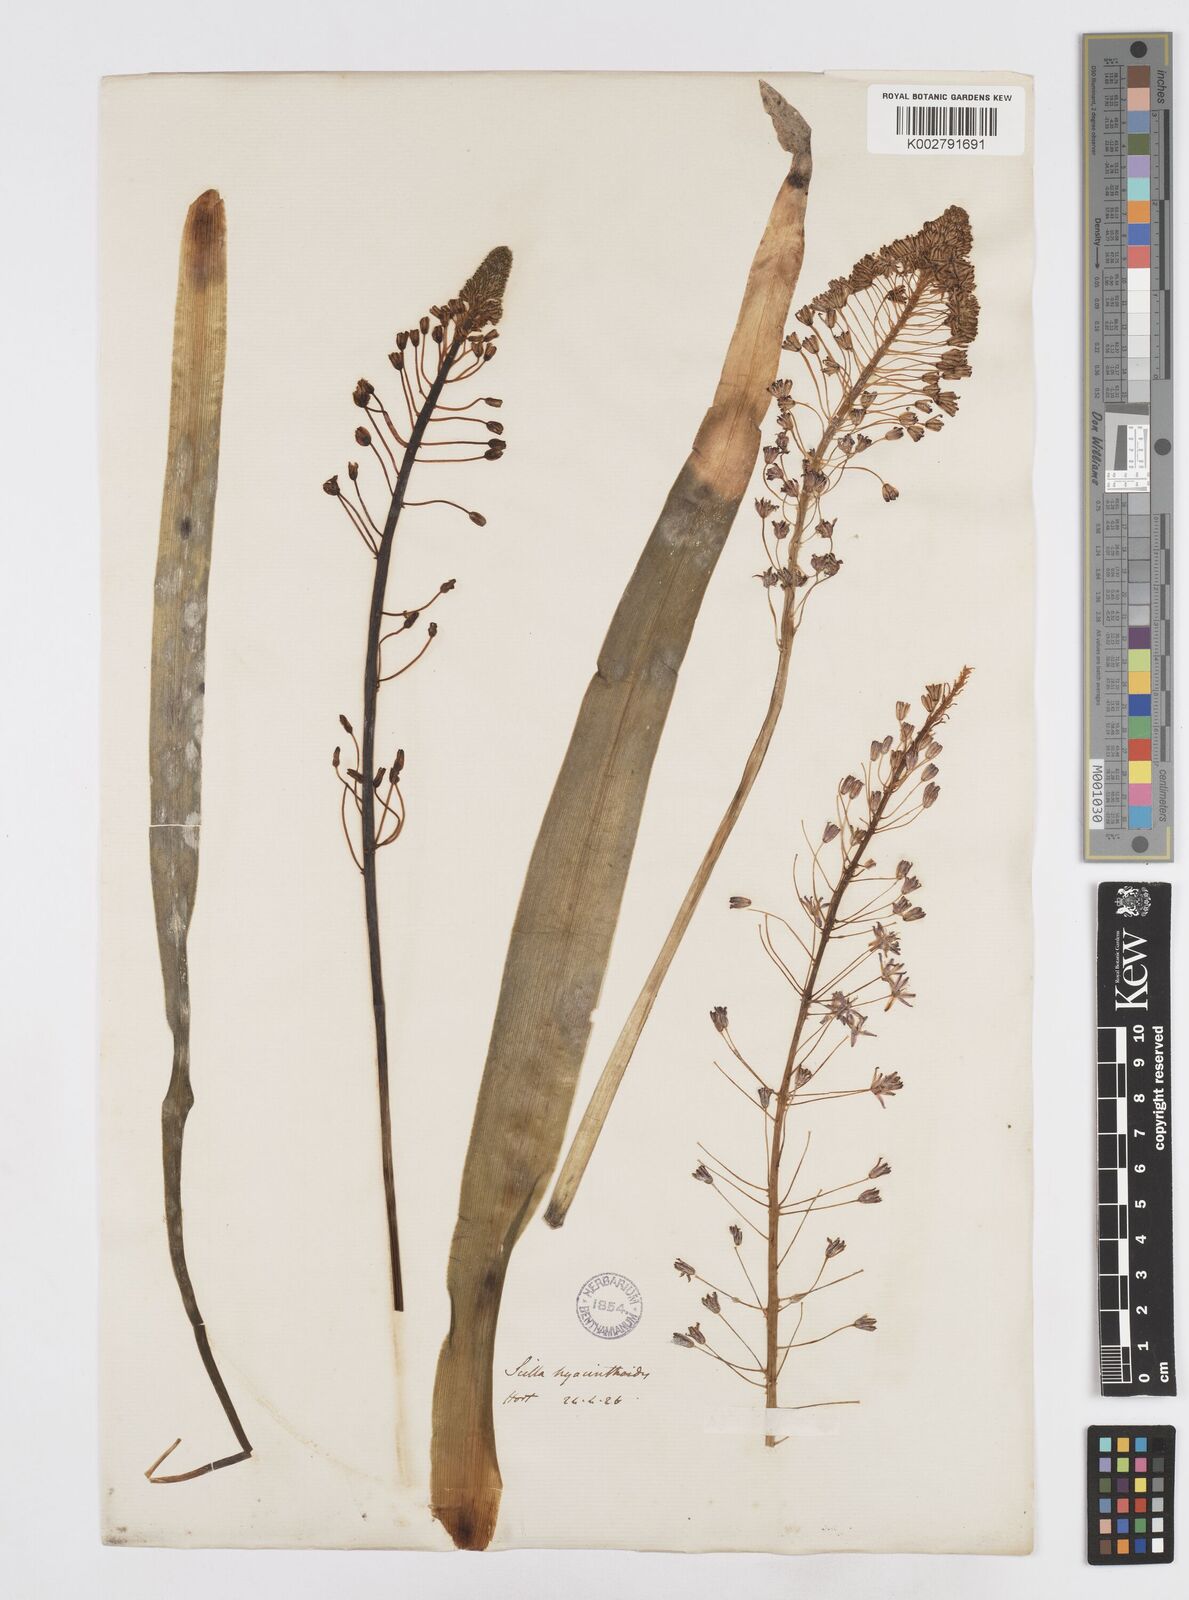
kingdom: Plantae
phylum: Tracheophyta
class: Liliopsida
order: Asparagales
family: Asparagaceae
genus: Ledebouria
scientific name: Ledebouria revoluta
